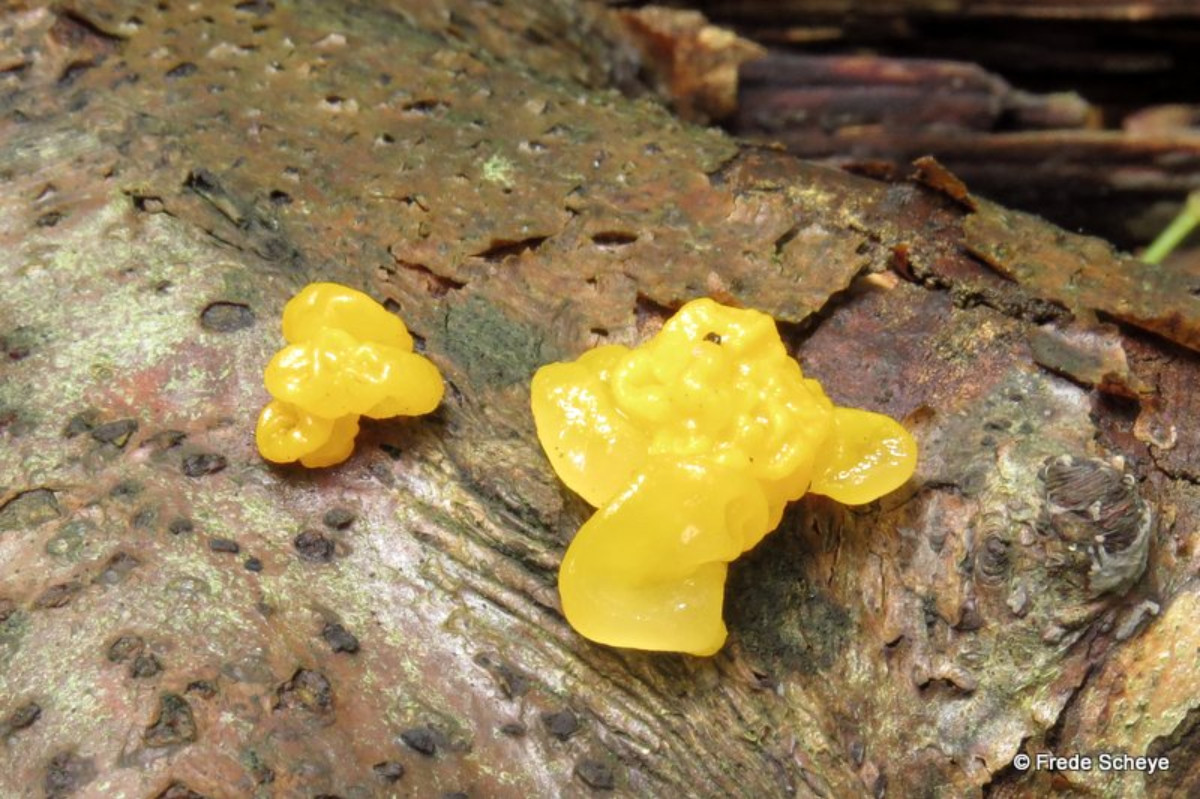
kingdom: Fungi
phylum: Basidiomycota
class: Tremellomycetes
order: Tremellales
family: Tremellaceae
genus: Tremella
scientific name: Tremella mesenterica
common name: gul bævresvamp
